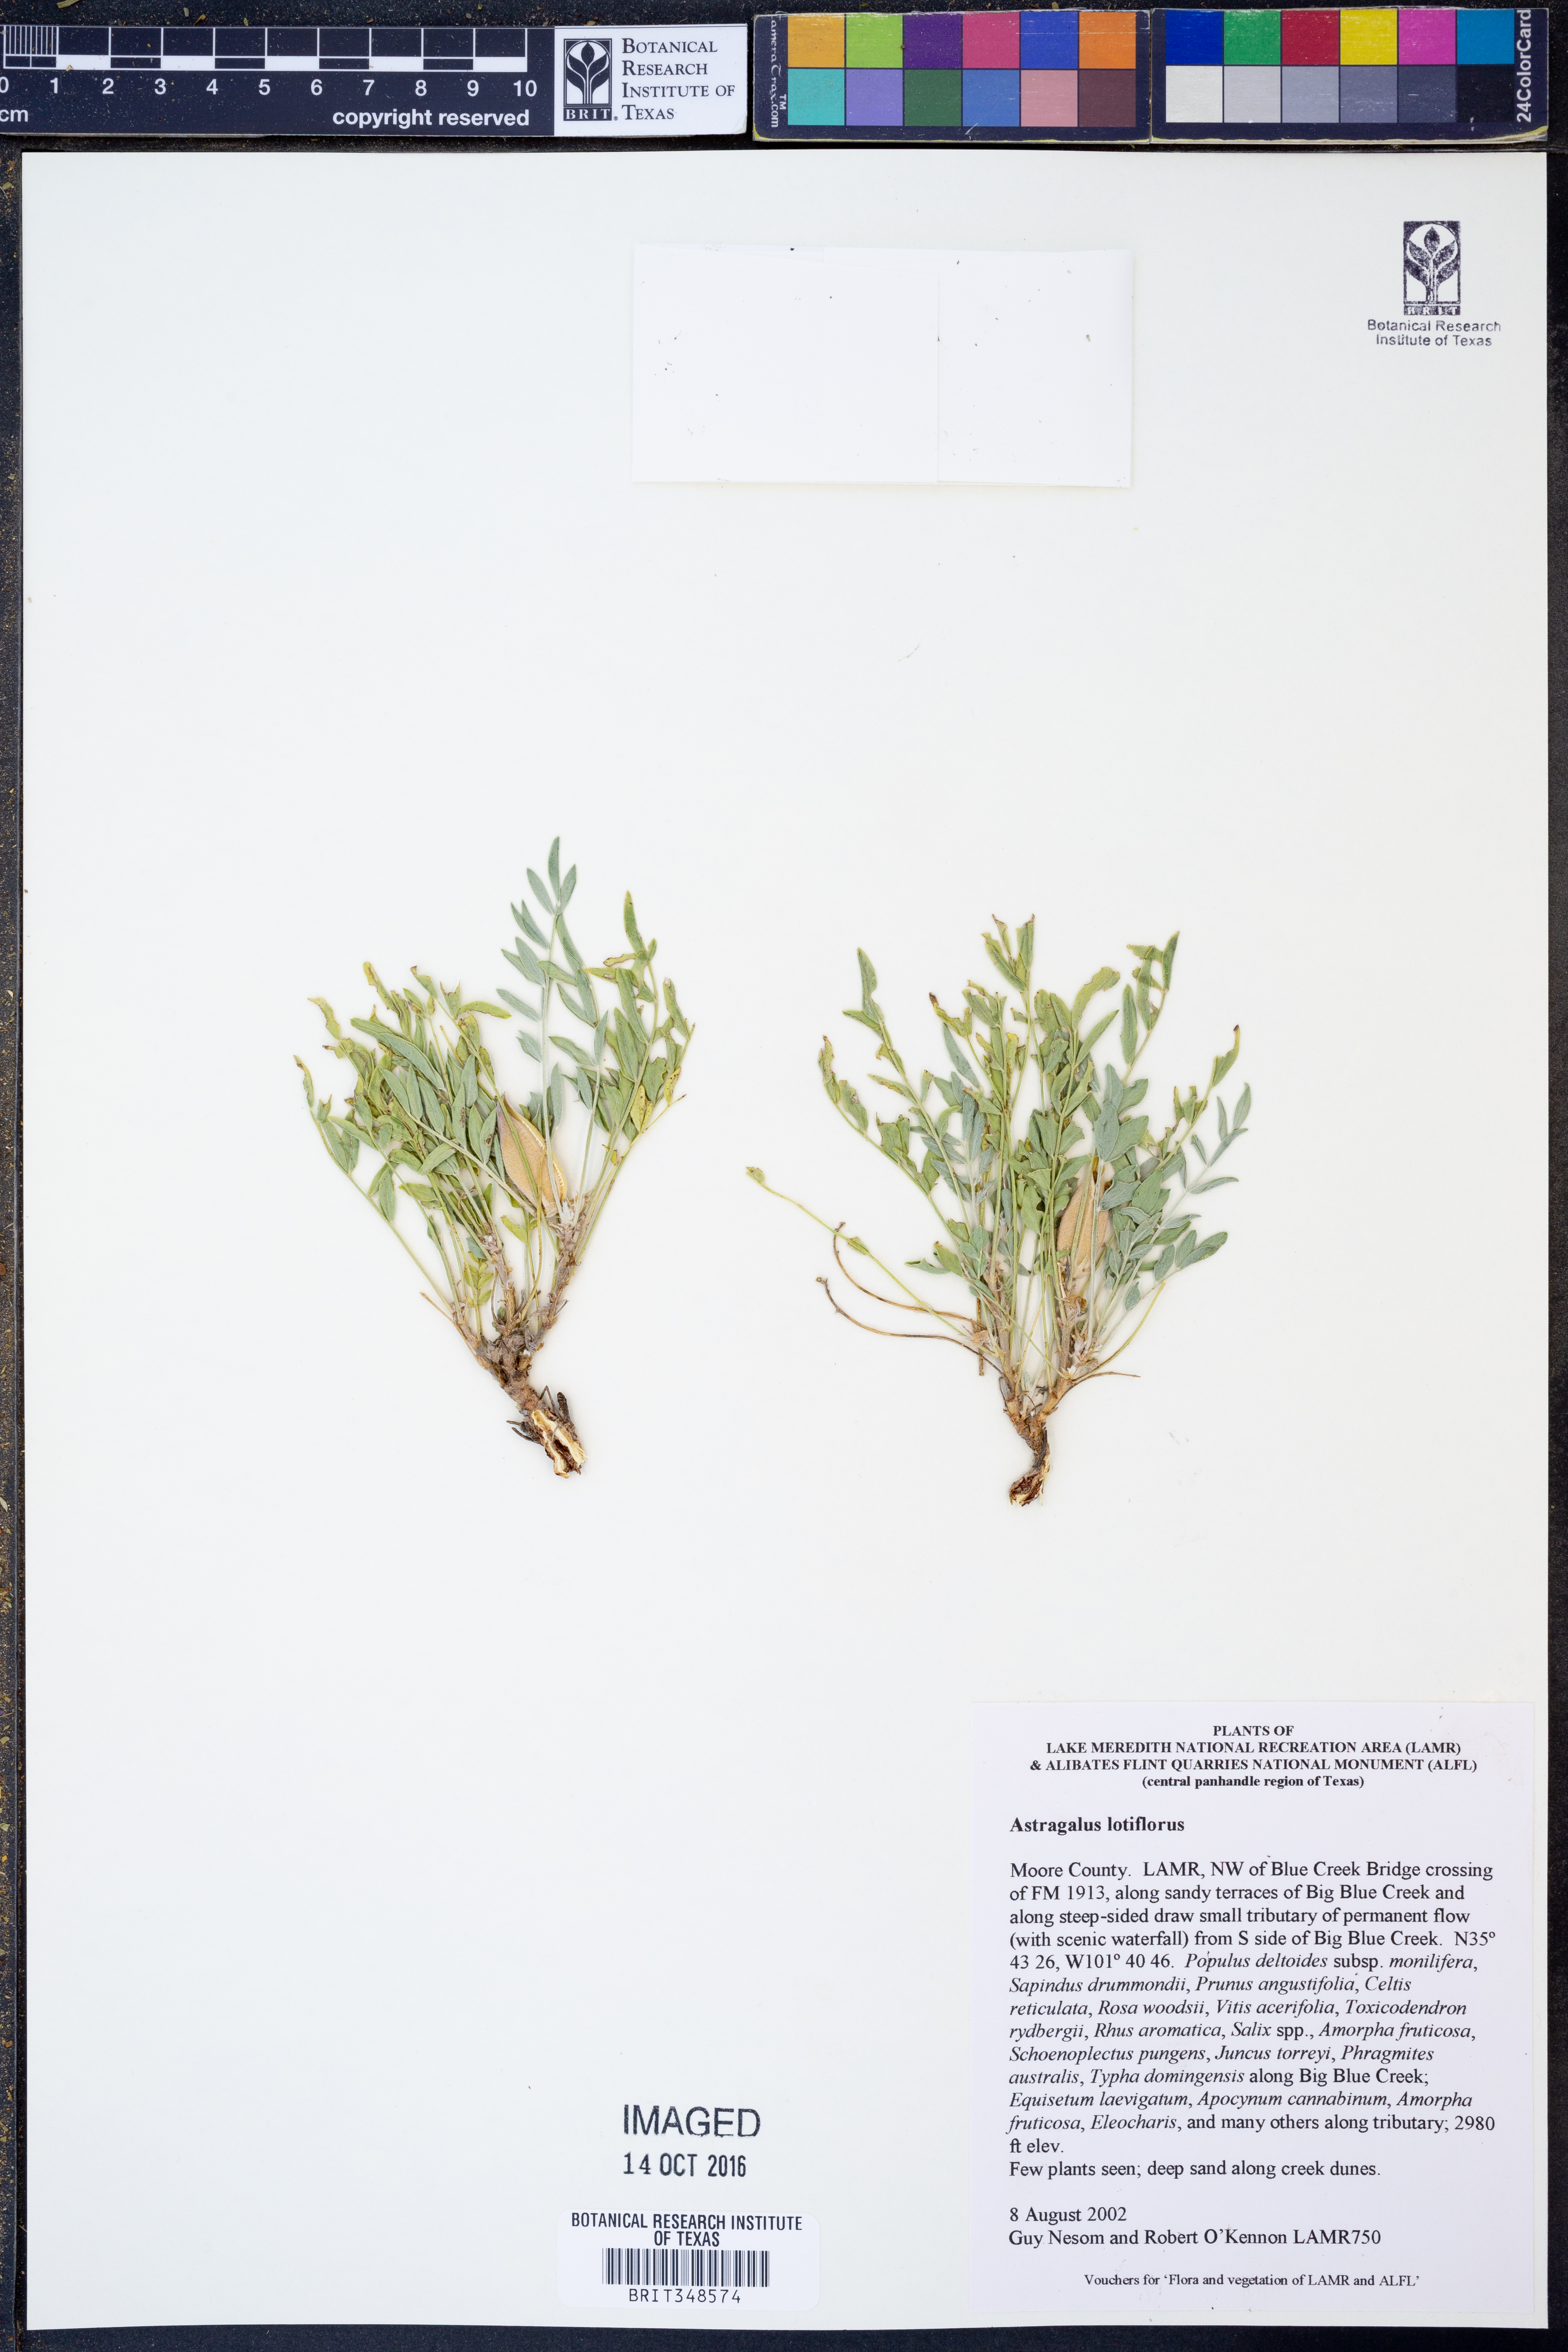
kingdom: Plantae
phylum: Tracheophyta
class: Magnoliopsida
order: Fabales
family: Fabaceae
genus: Astragalus
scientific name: Astragalus lotiflorus
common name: Lotus milk-vetch
